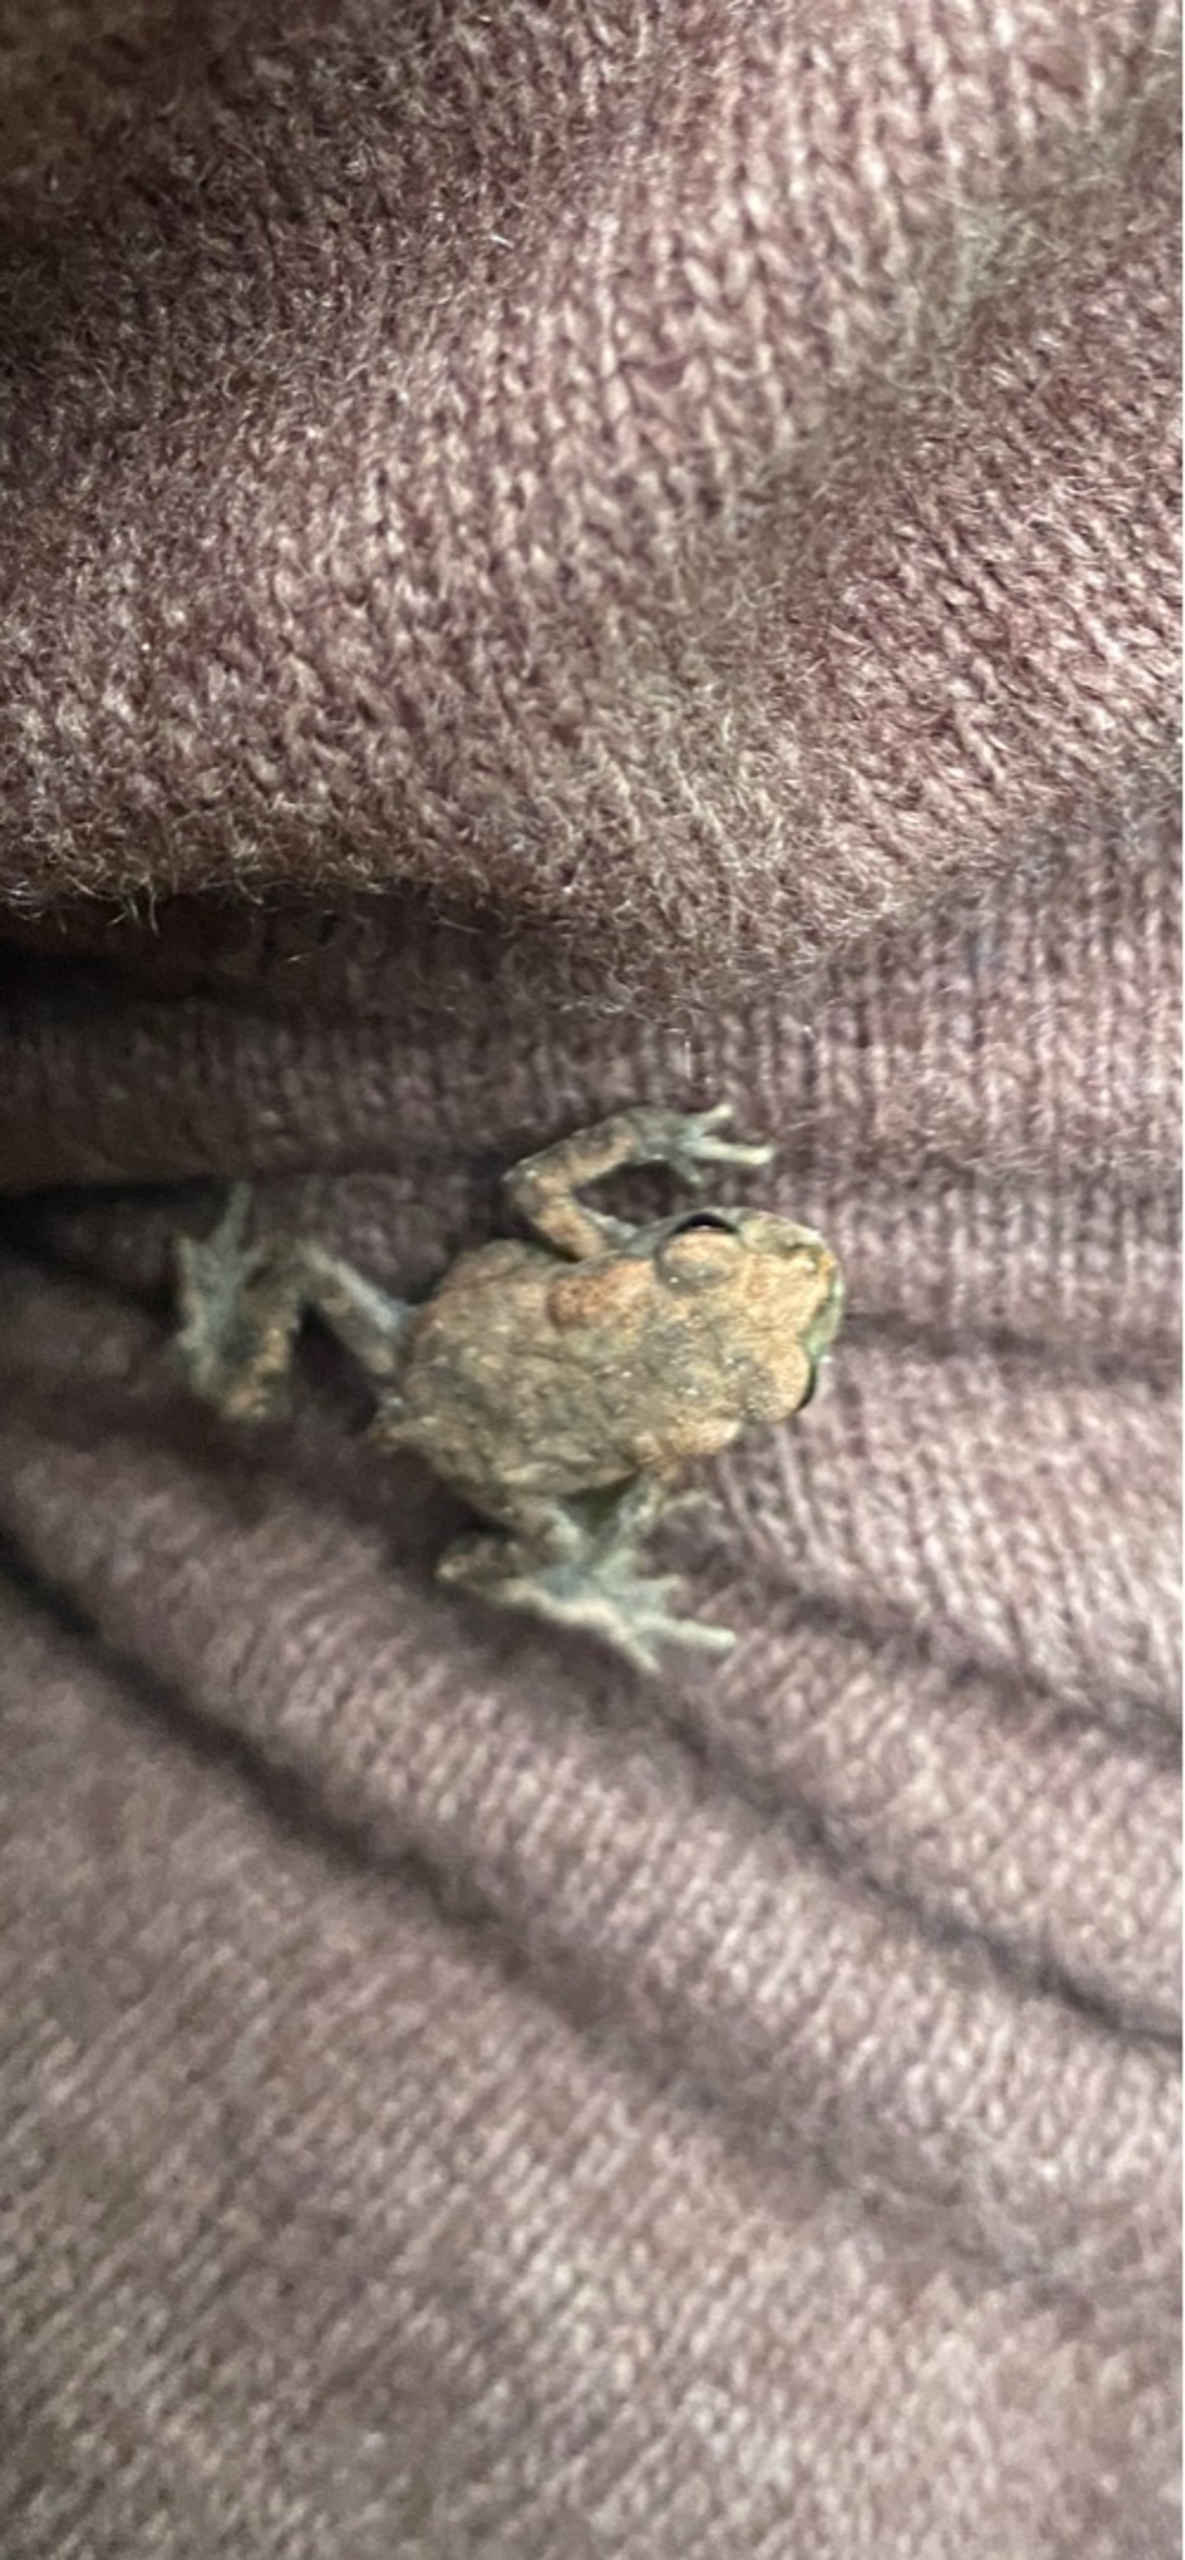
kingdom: Animalia
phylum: Chordata
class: Amphibia
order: Anura
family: Bufonidae
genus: Bufo
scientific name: Bufo bufo
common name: Skrubtudse
